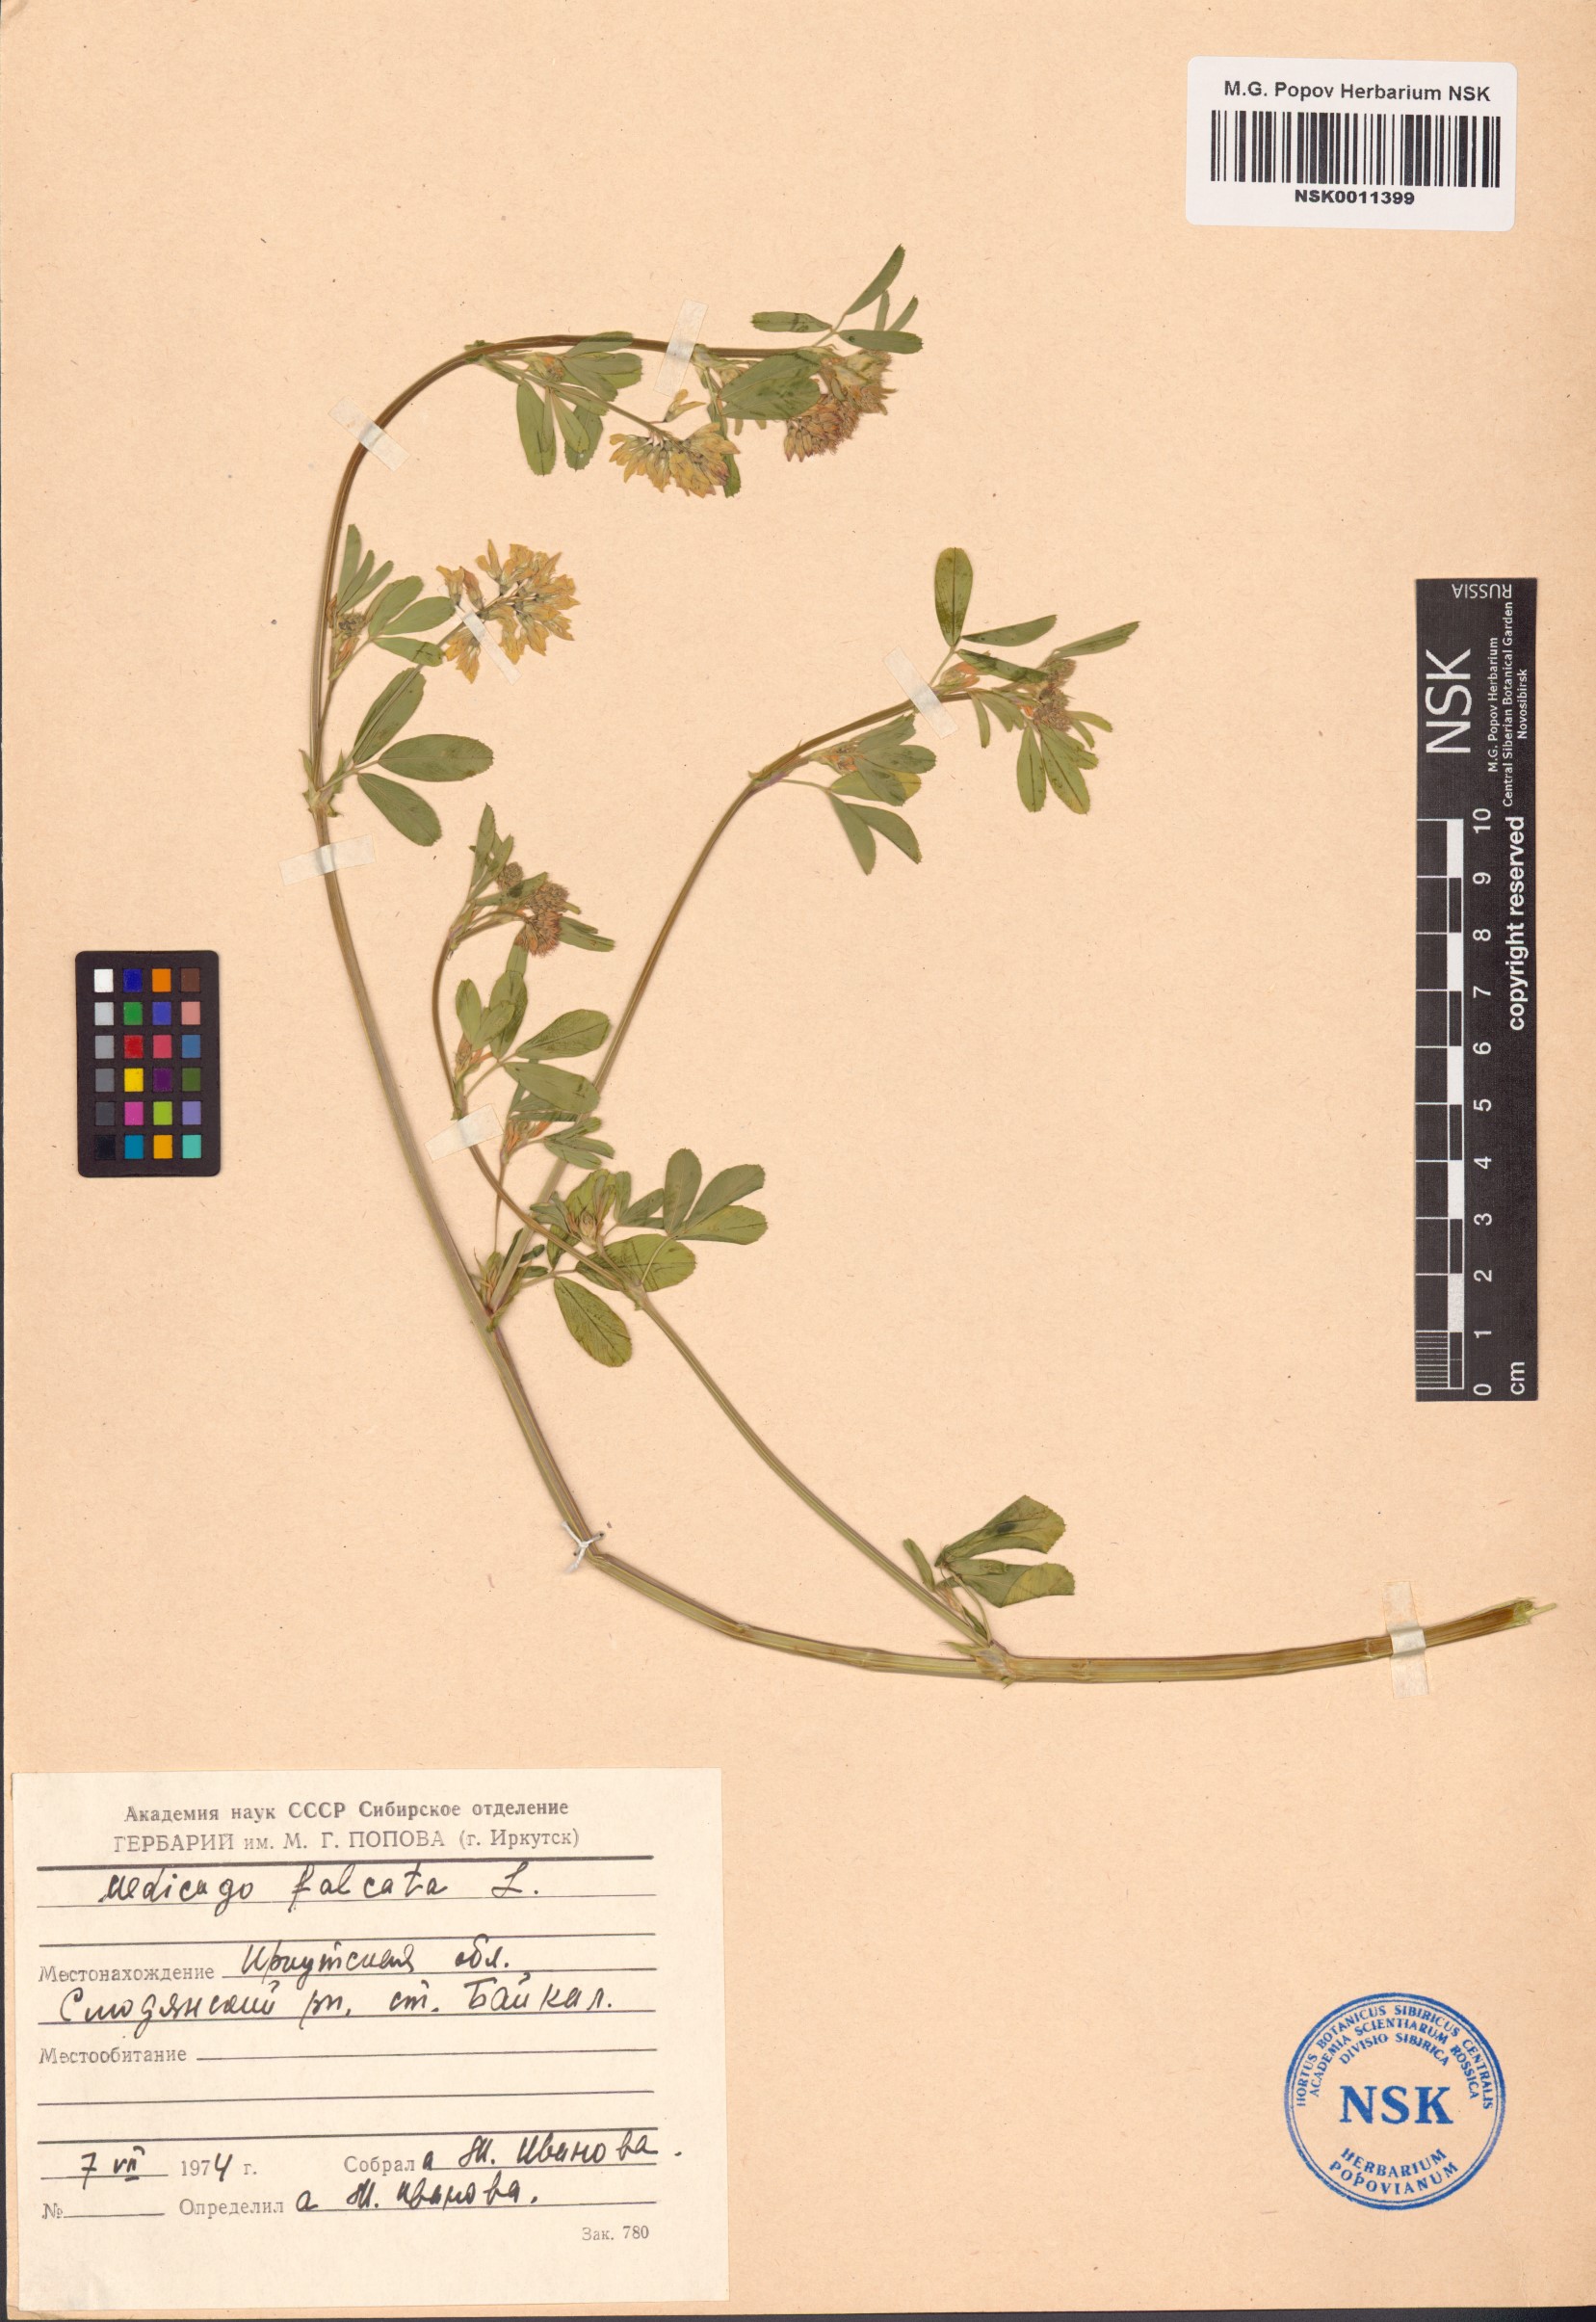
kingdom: Plantae
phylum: Tracheophyta
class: Magnoliopsida
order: Fabales
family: Fabaceae
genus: Medicago
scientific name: Medicago falcata
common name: Sickle medick
